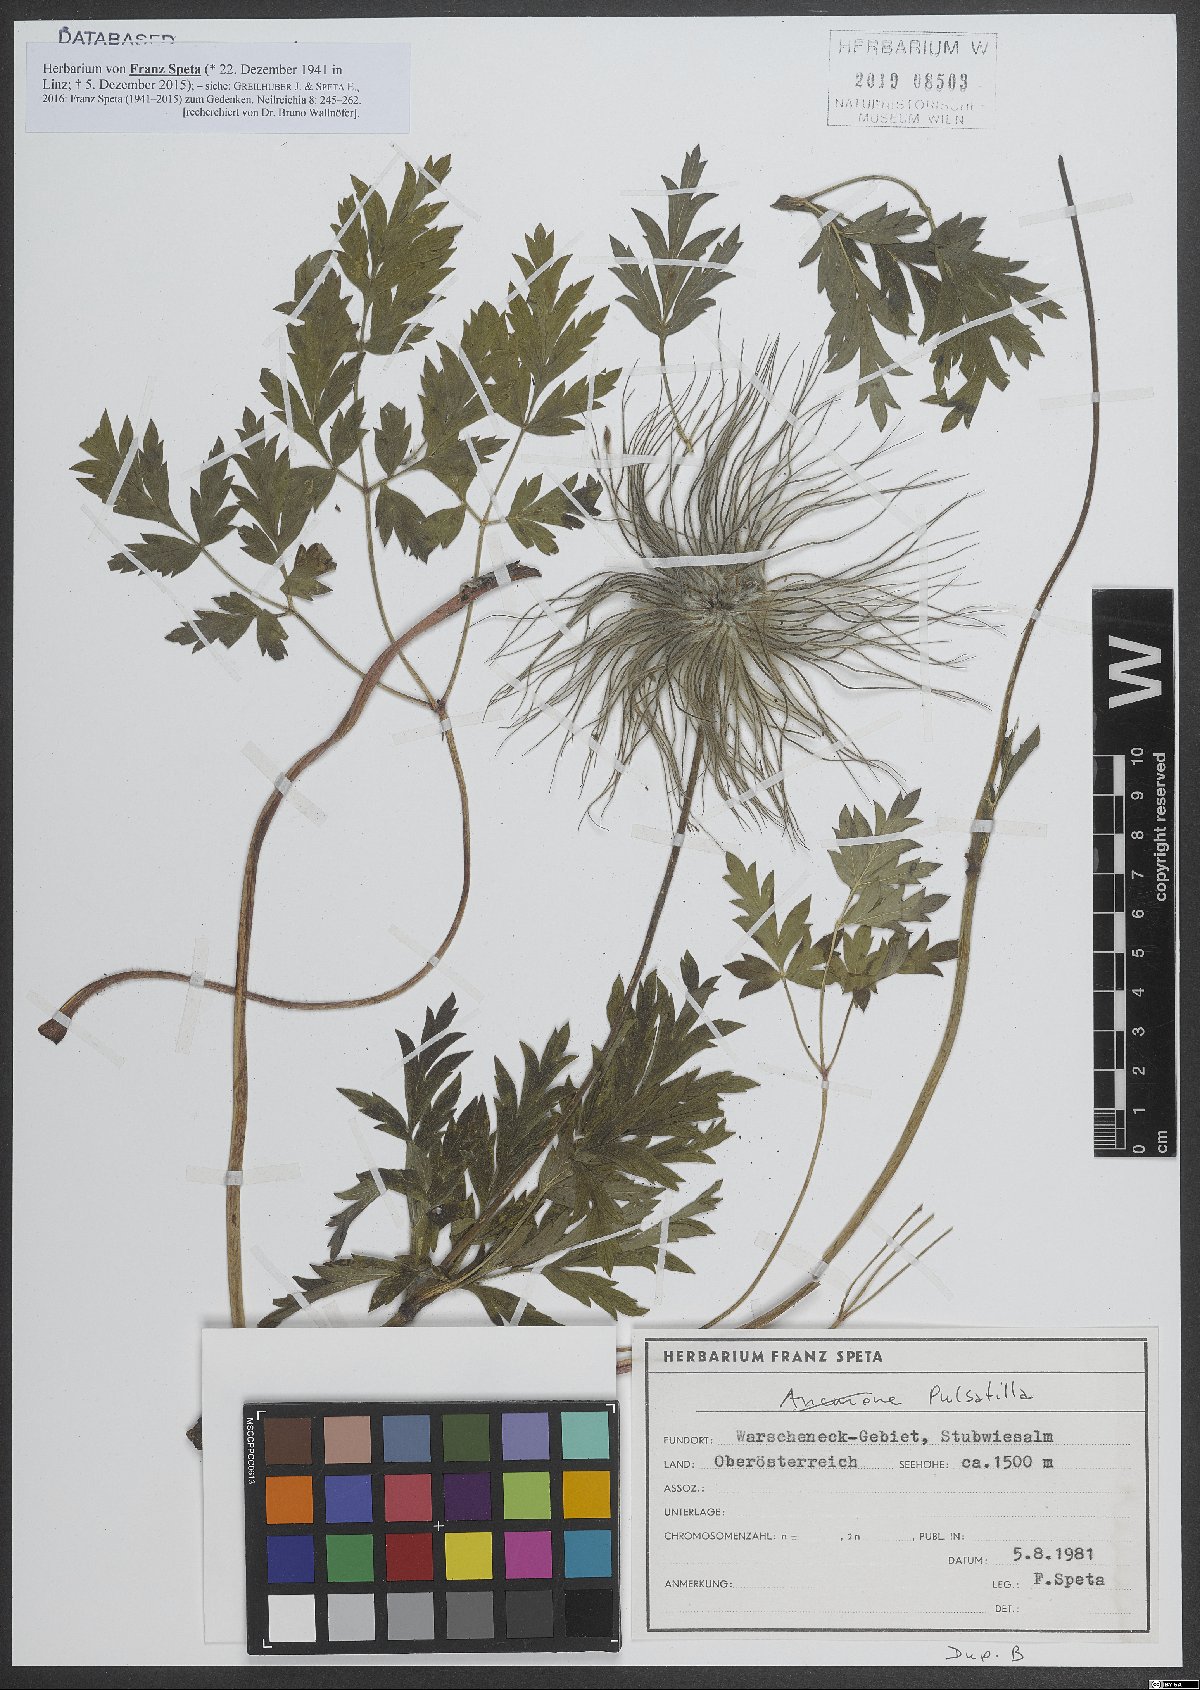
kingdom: Plantae
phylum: Tracheophyta
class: Magnoliopsida
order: Ranunculales
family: Ranunculaceae
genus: Pulsatilla
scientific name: Pulsatilla
